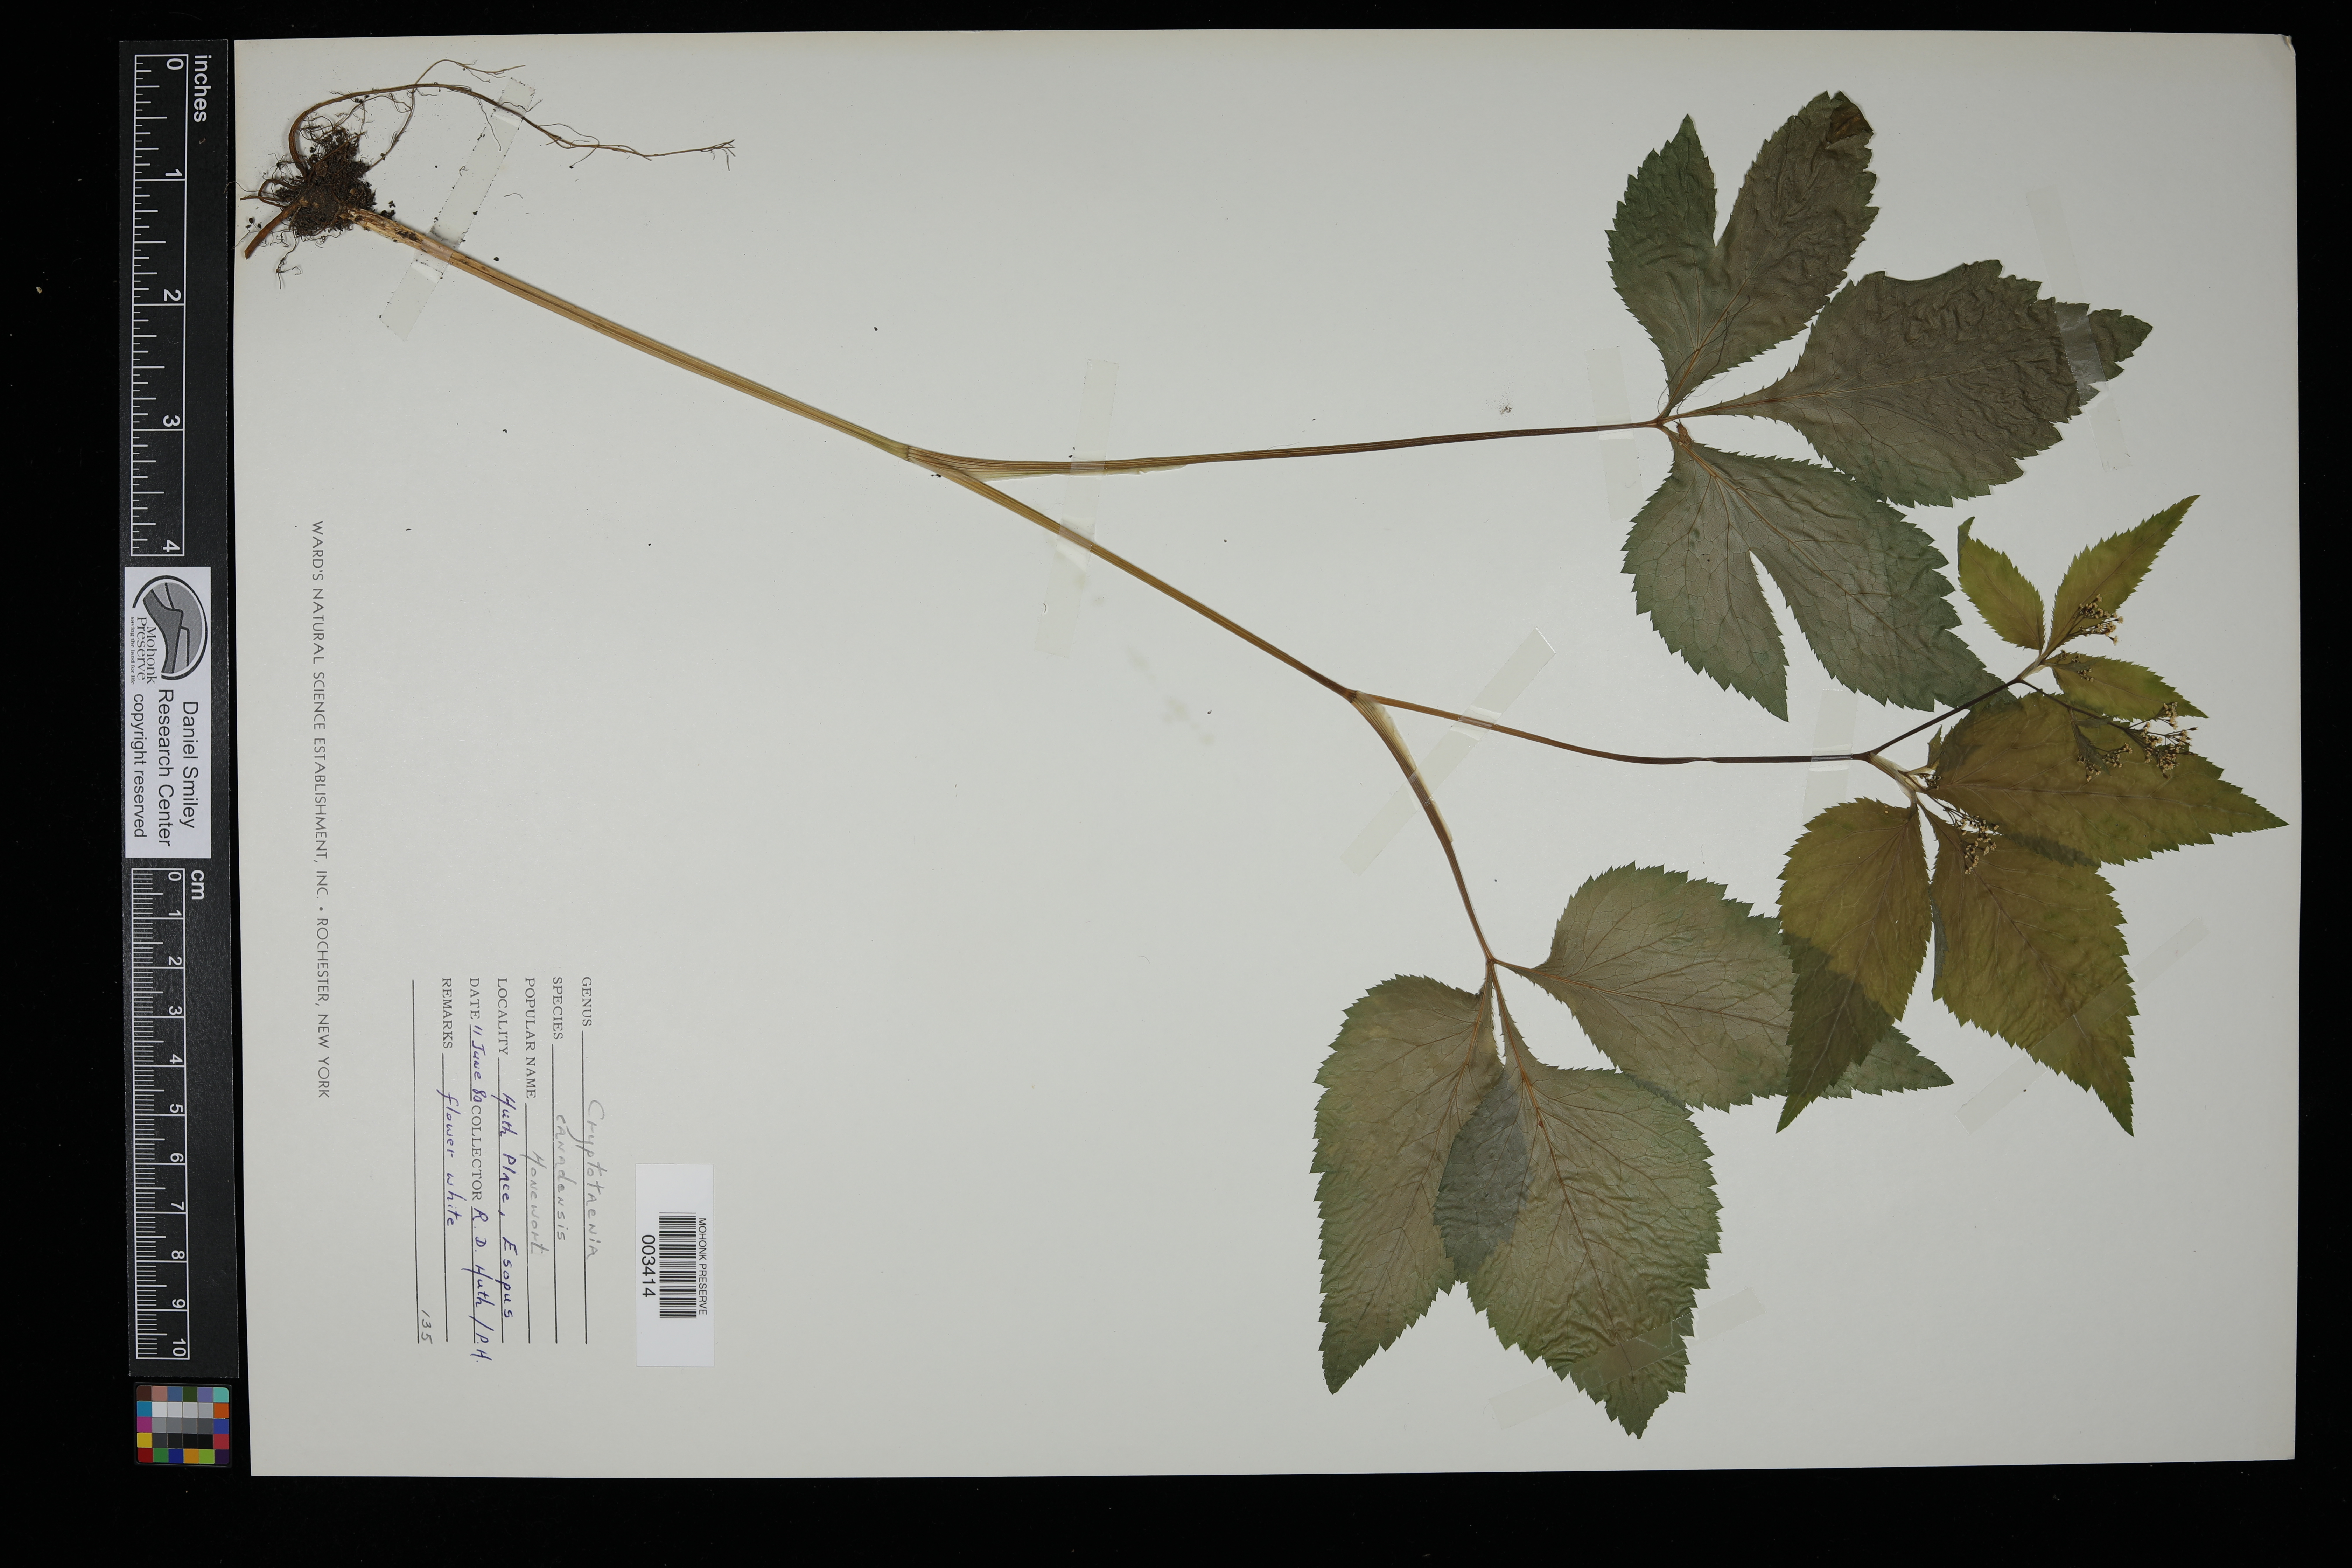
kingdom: Plantae
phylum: Tracheophyta
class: Magnoliopsida
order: Apiales
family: Apiaceae
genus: Cryptotaenia
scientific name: Cryptotaenia canadensis
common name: Honewort
